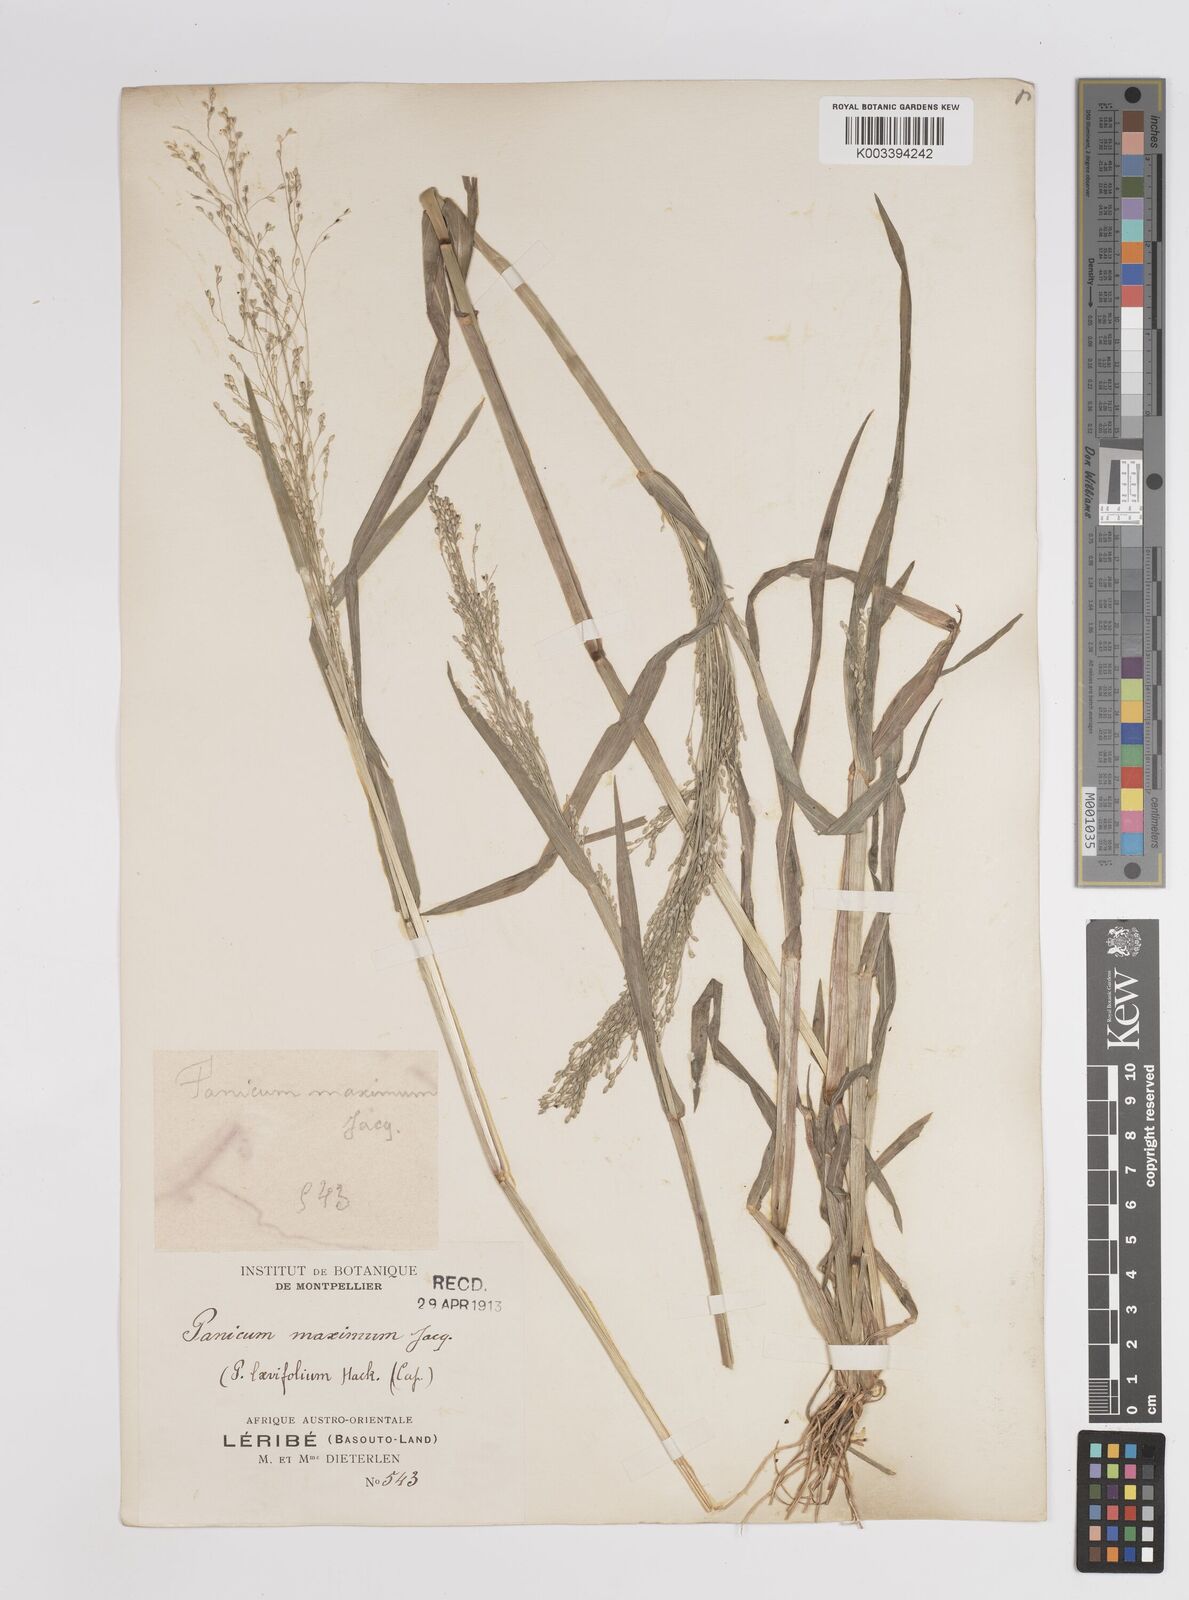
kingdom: Plantae
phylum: Tracheophyta
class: Liliopsida
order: Poales
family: Poaceae
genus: Panicum
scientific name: Panicum schinzii
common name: Sweet grass
